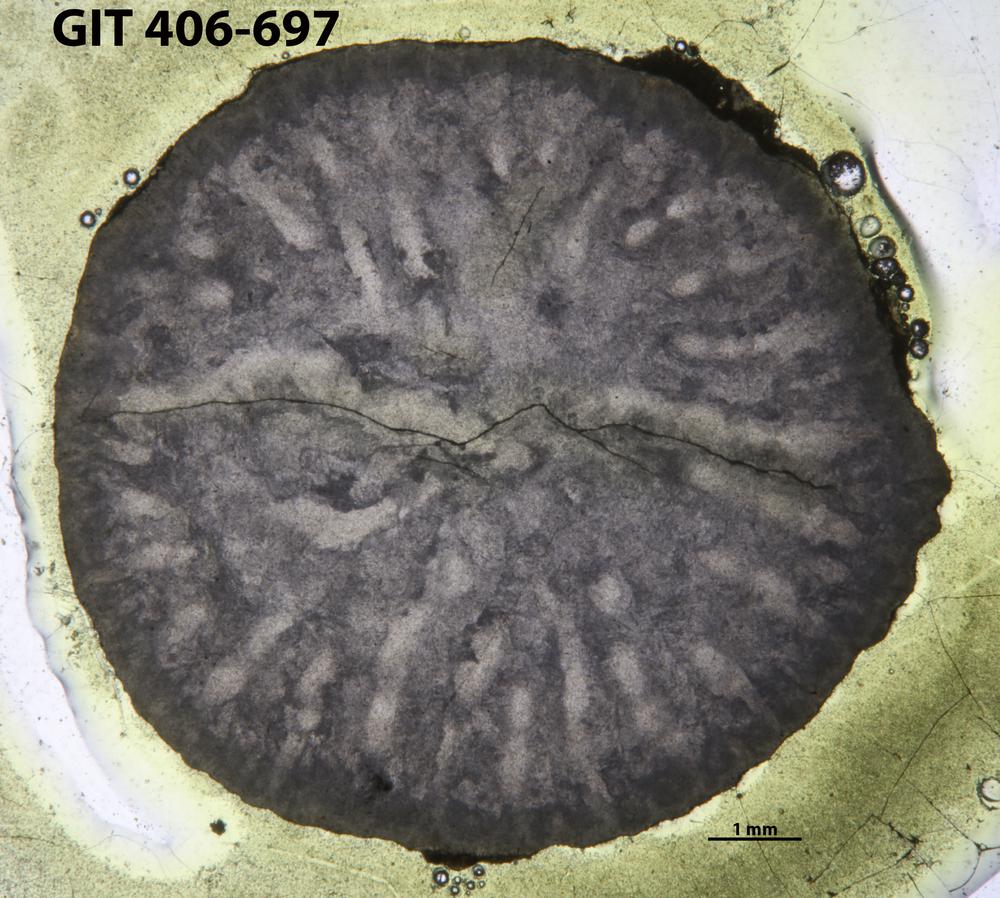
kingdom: Animalia
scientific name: Animalia
